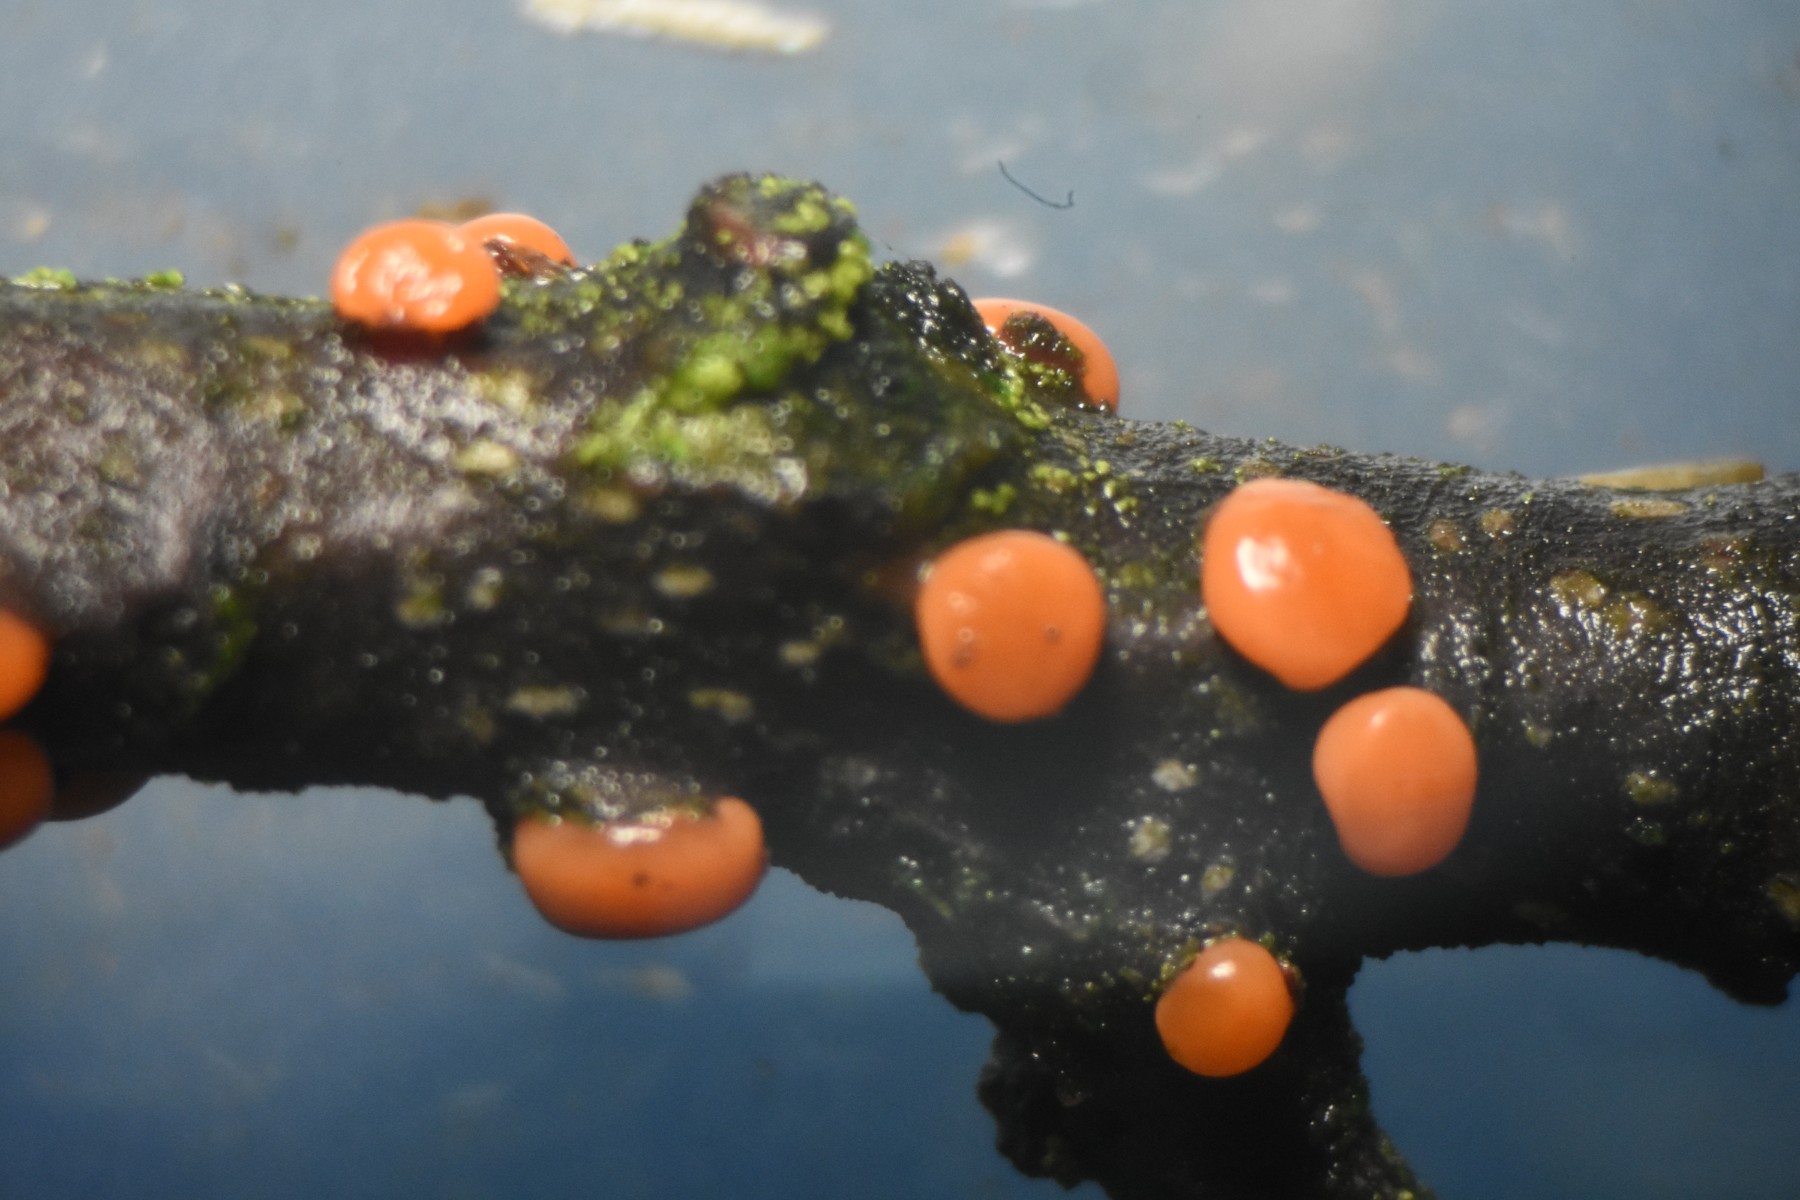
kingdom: Fungi
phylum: Ascomycota
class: Sordariomycetes
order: Hypocreales
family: Nectriaceae
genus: Nectria
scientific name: Nectria cinnabarina
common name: almindelig cinnobersvamp
